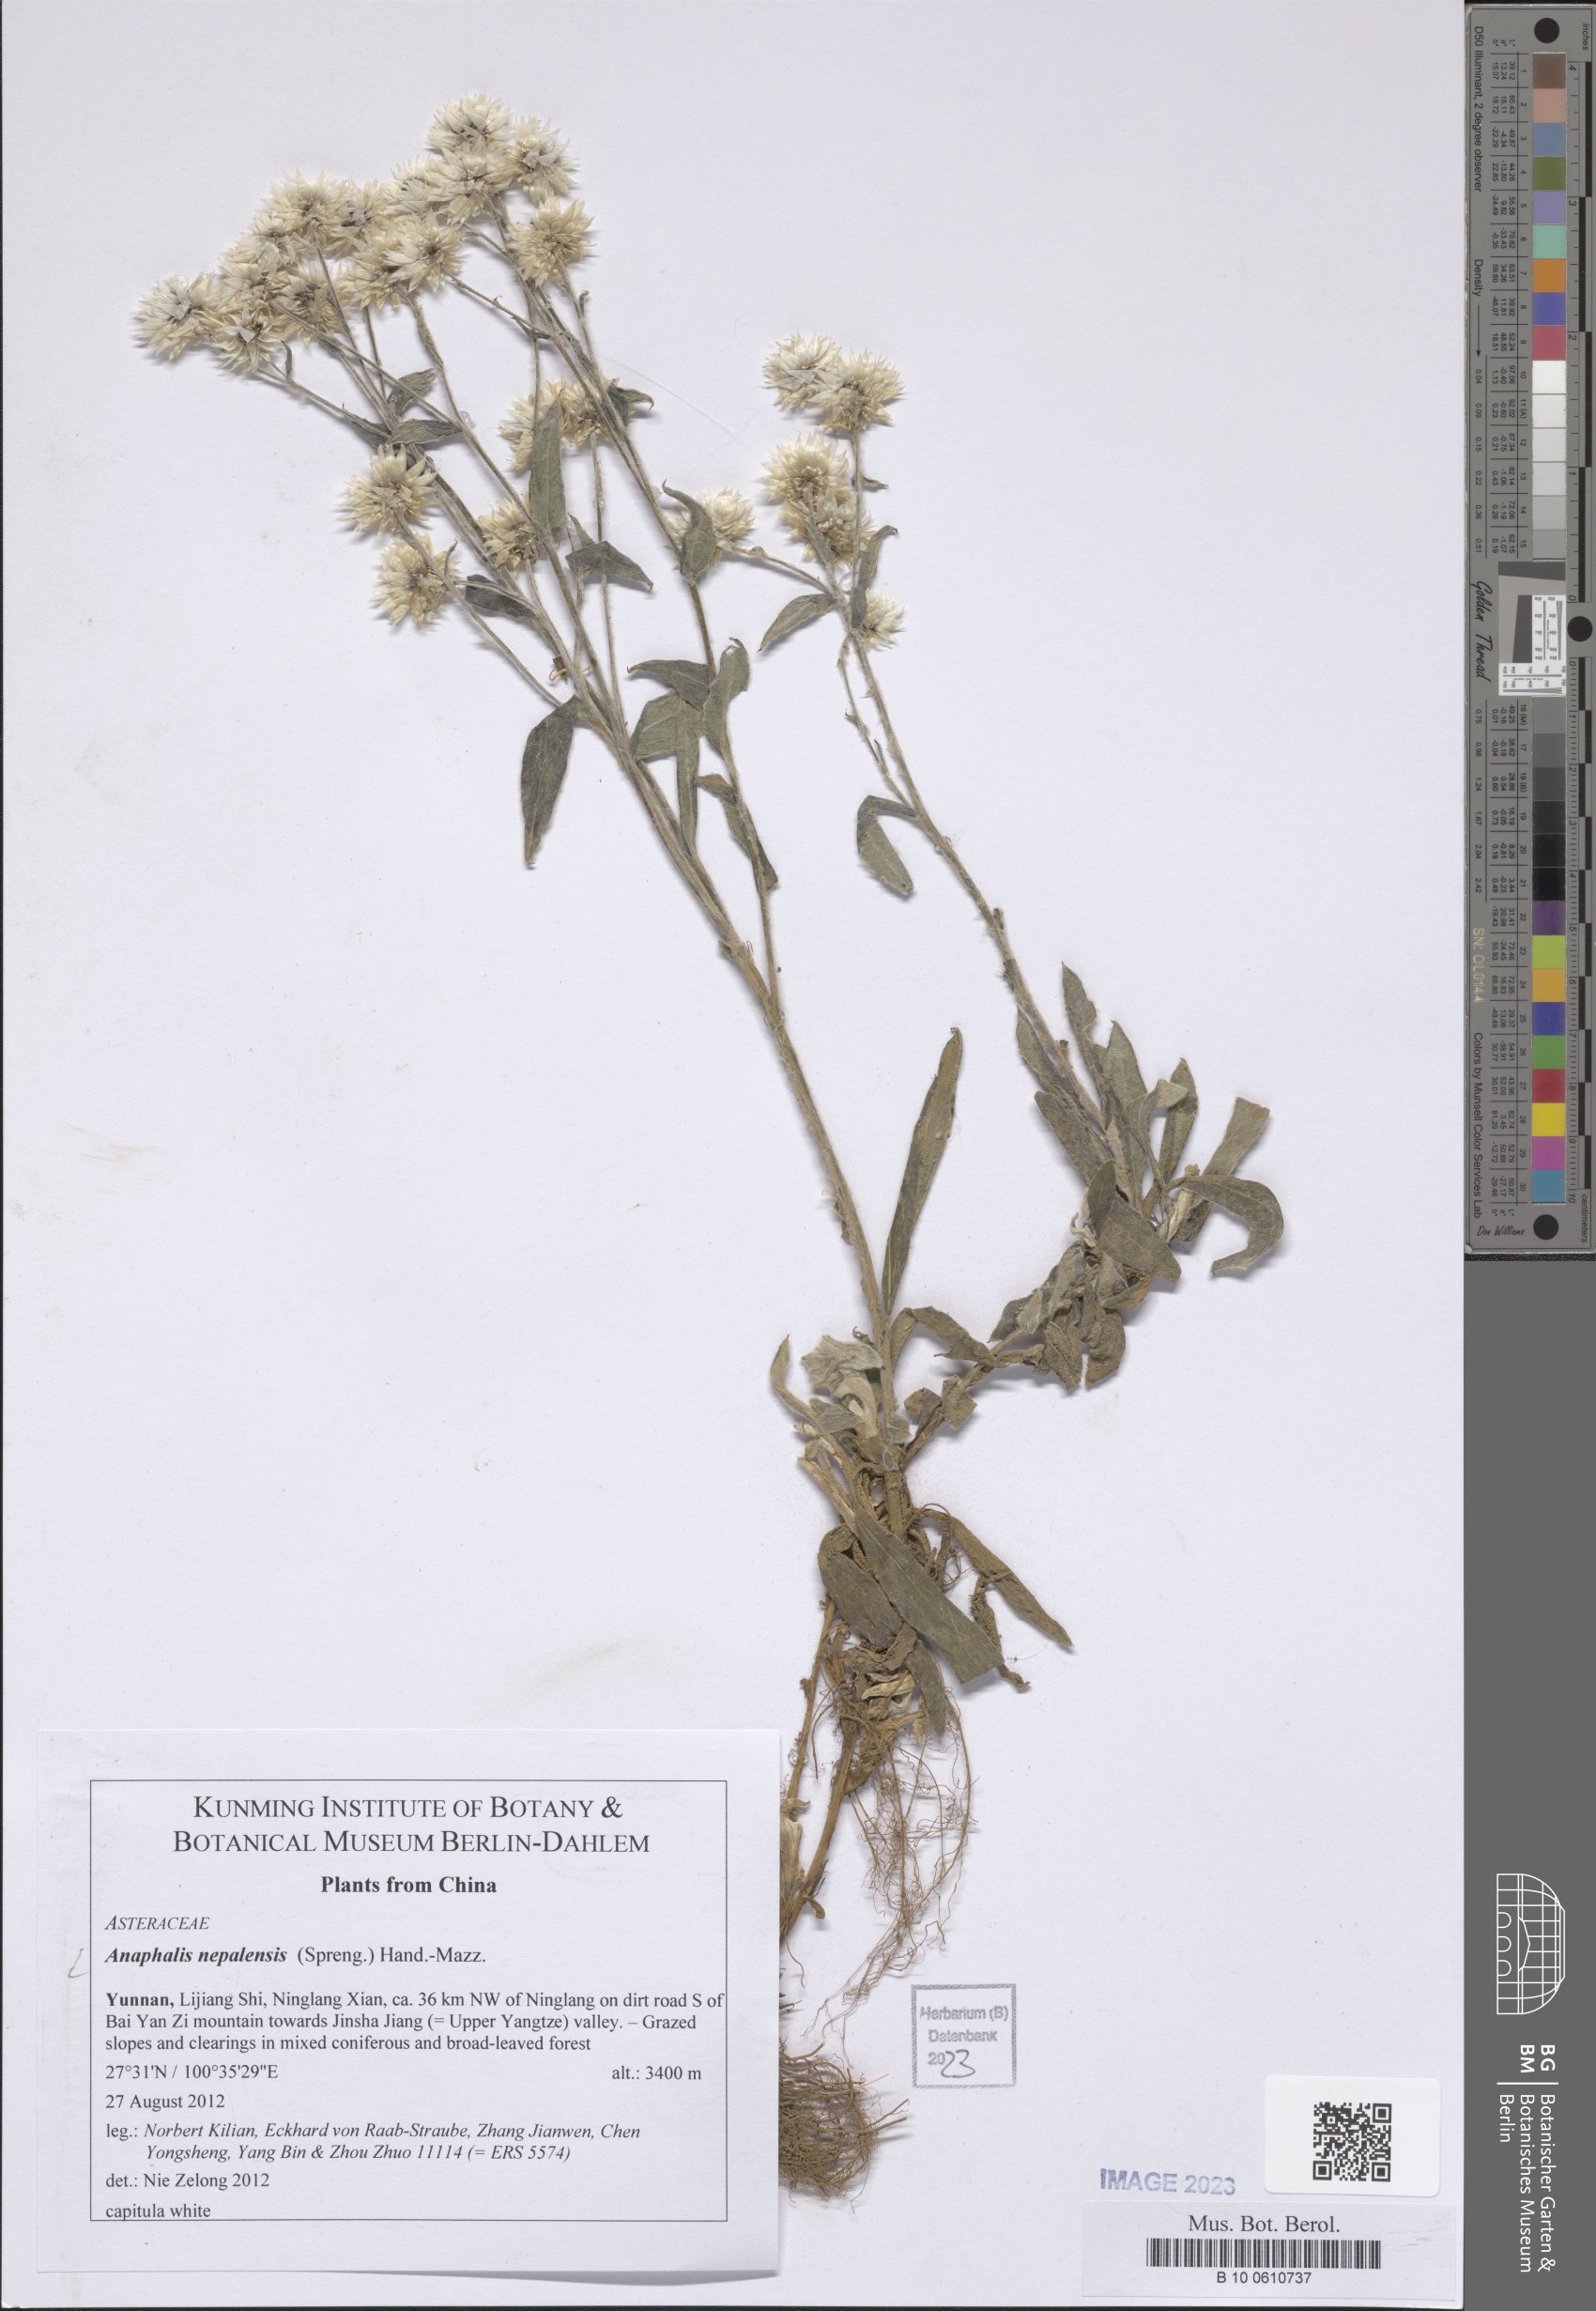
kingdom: Plantae
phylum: Tracheophyta
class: Magnoliopsida
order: Asterales
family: Asteraceae
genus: Anaphalis
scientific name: Anaphalis nepalensis
